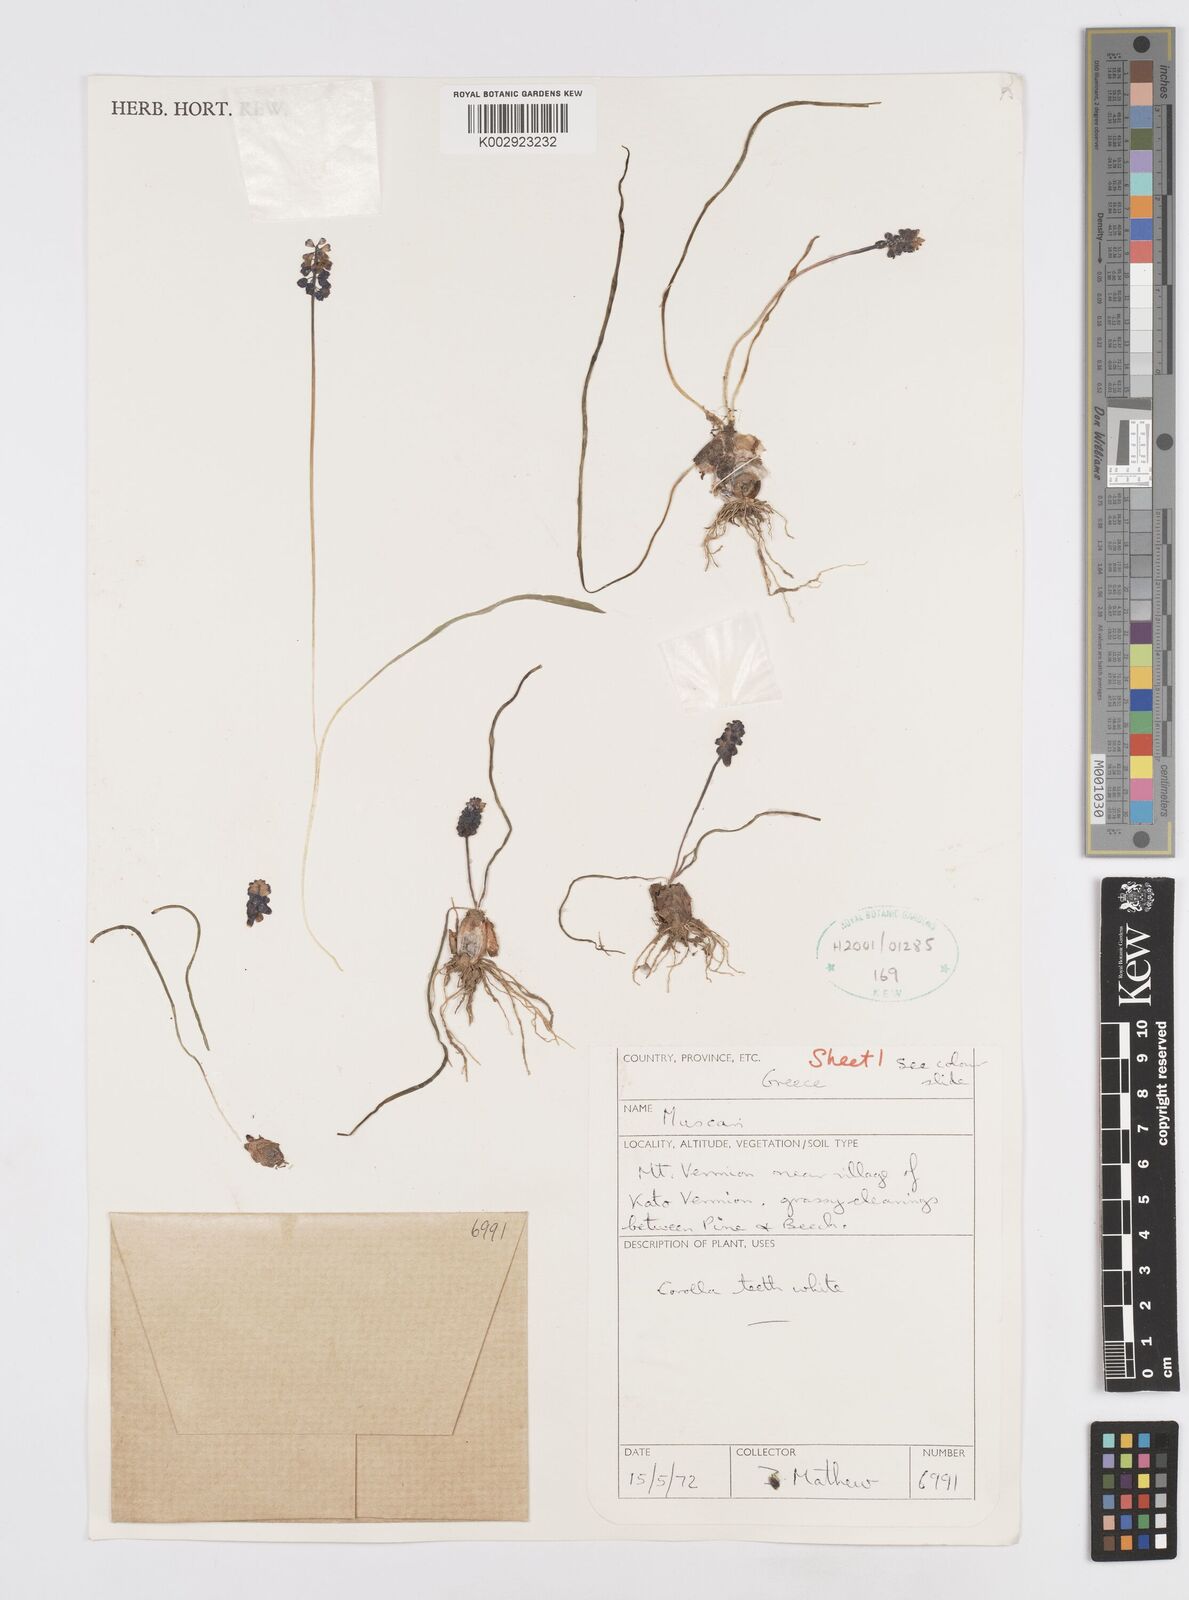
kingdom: Plantae
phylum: Tracheophyta
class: Liliopsida
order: Asparagales
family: Asparagaceae
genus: Muscari
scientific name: Muscari
